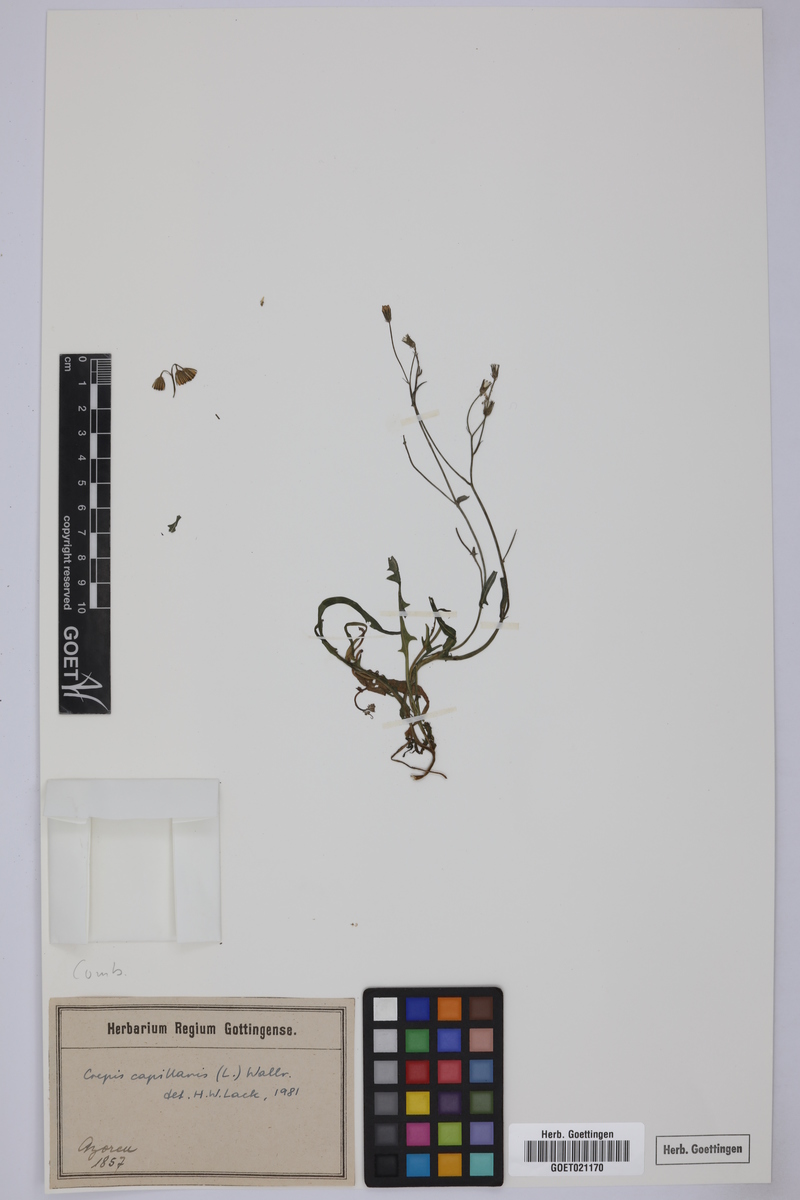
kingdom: Plantae
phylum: Tracheophyta
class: Magnoliopsida
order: Asterales
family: Asteraceae
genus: Crepis
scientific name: Crepis capillaris
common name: Smooth hawksbeard
